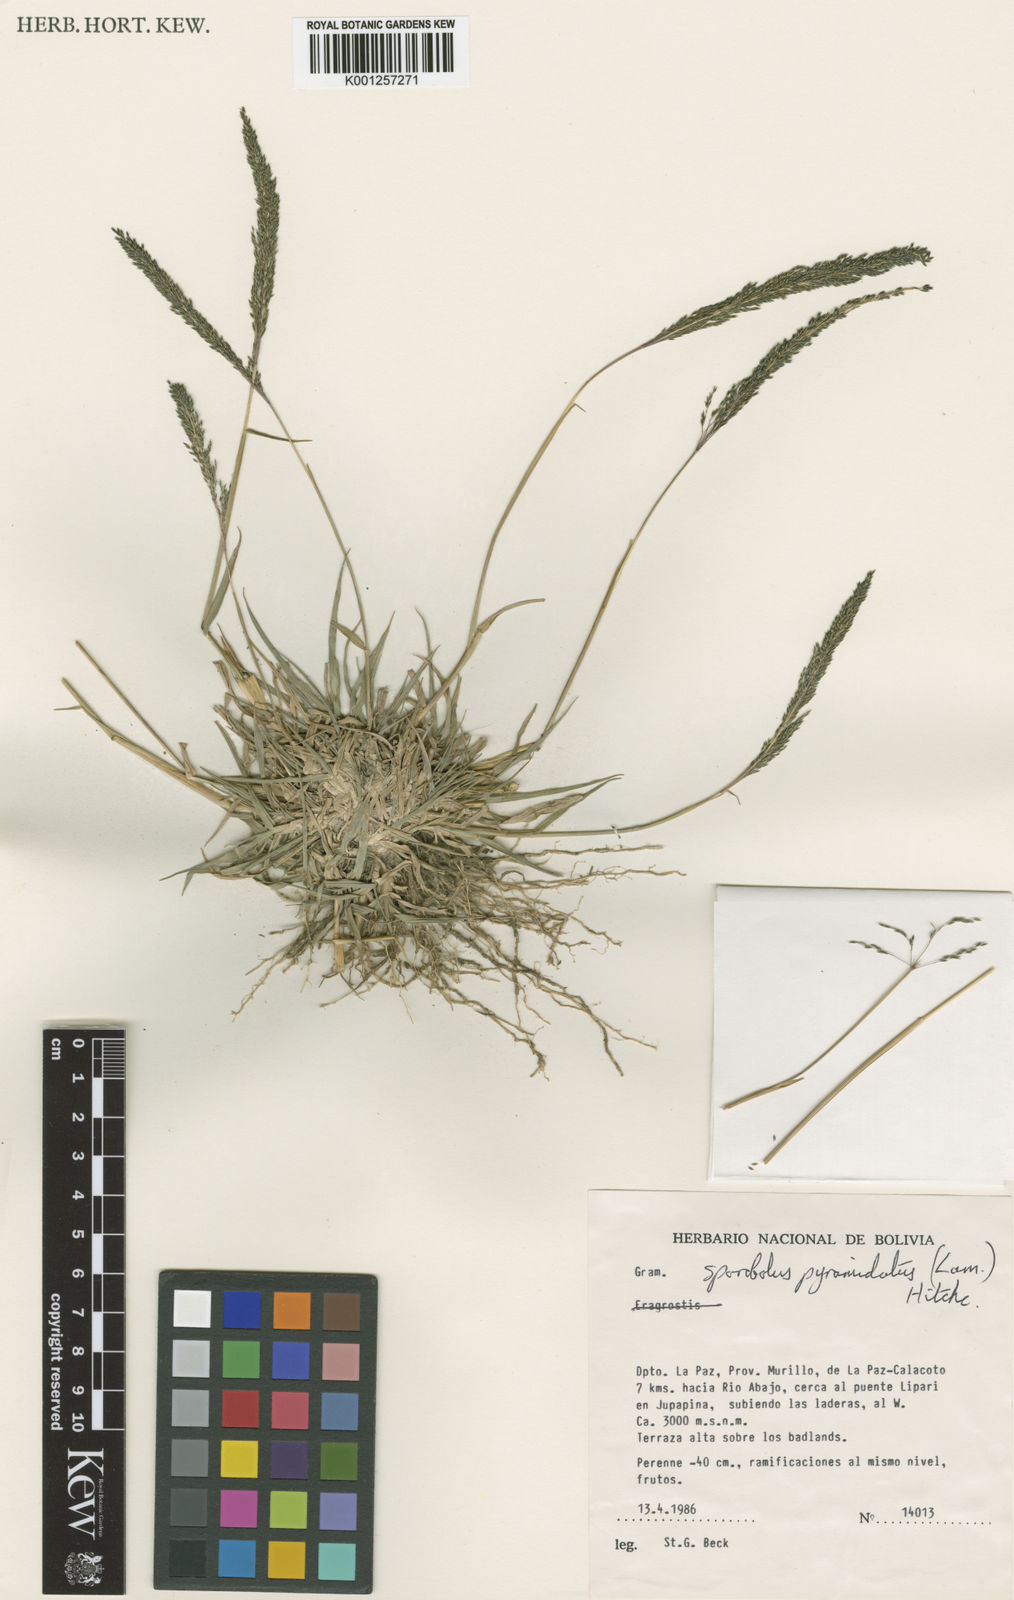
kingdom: Plantae
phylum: Tracheophyta
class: Liliopsida
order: Poales
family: Poaceae
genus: Sporobolus
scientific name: Sporobolus pyramidatus
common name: Whorled dropseed
